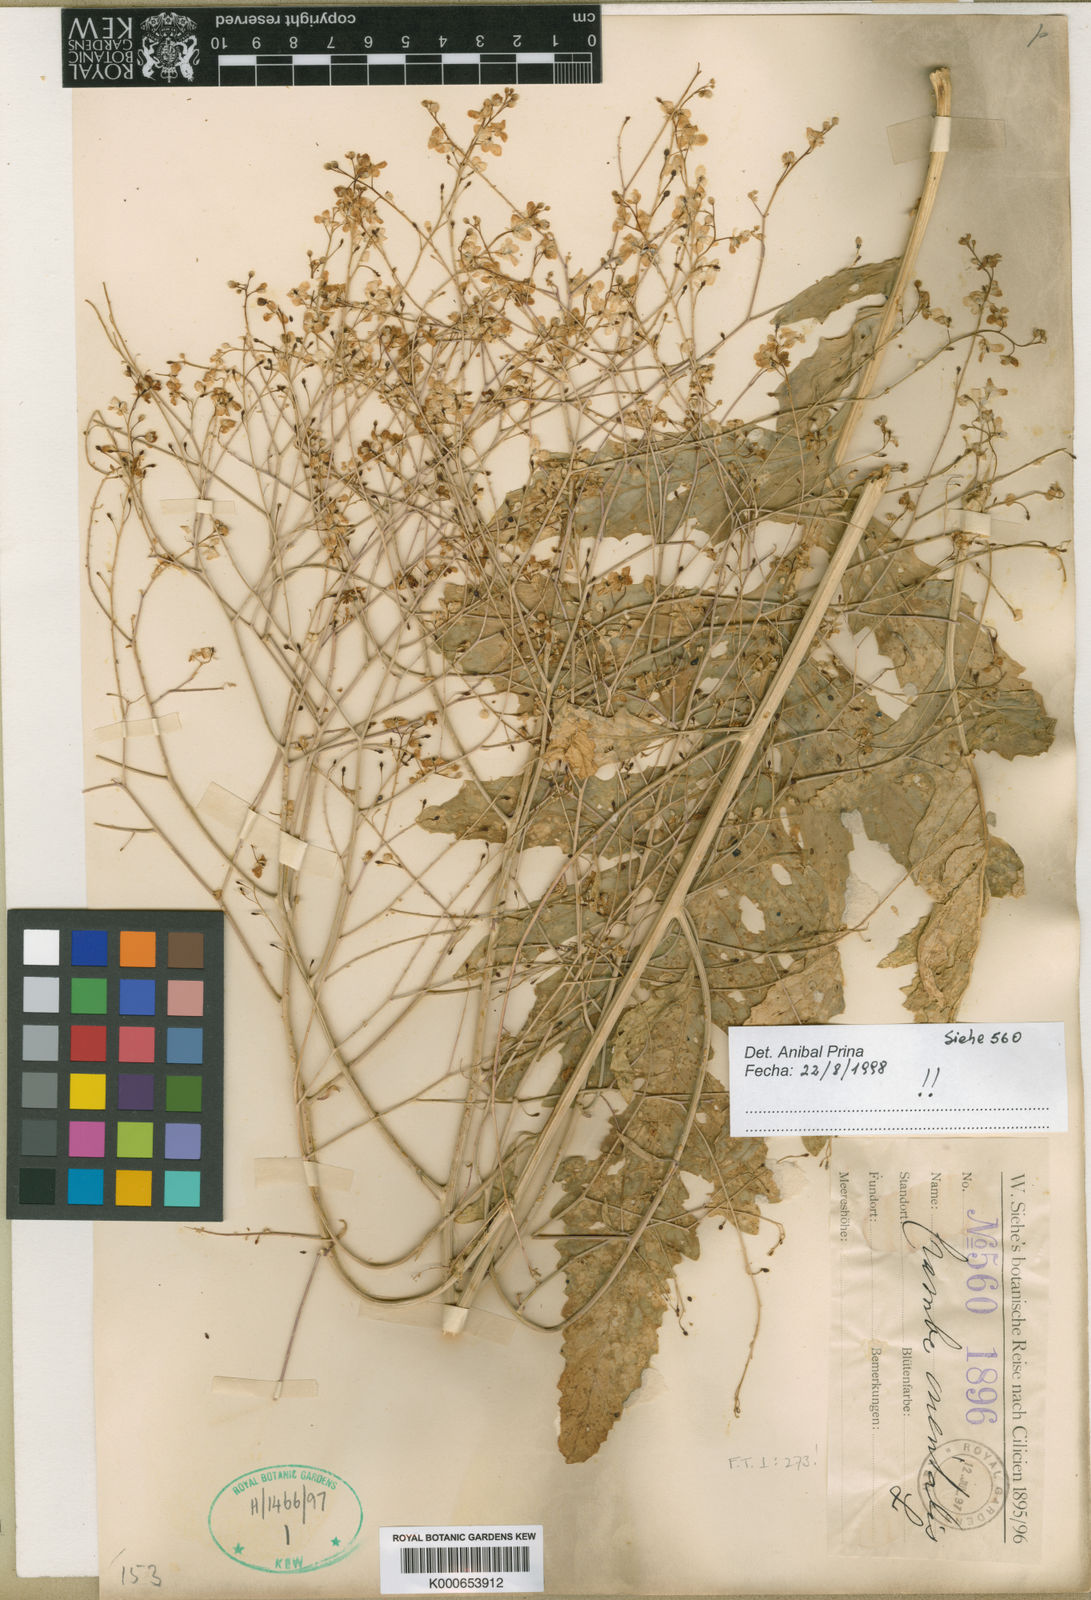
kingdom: Plantae
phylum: Tracheophyta
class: Magnoliopsida
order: Brassicales
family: Brassicaceae
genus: Crambe
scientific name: Crambe orientalis
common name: Oriental sea-kale
